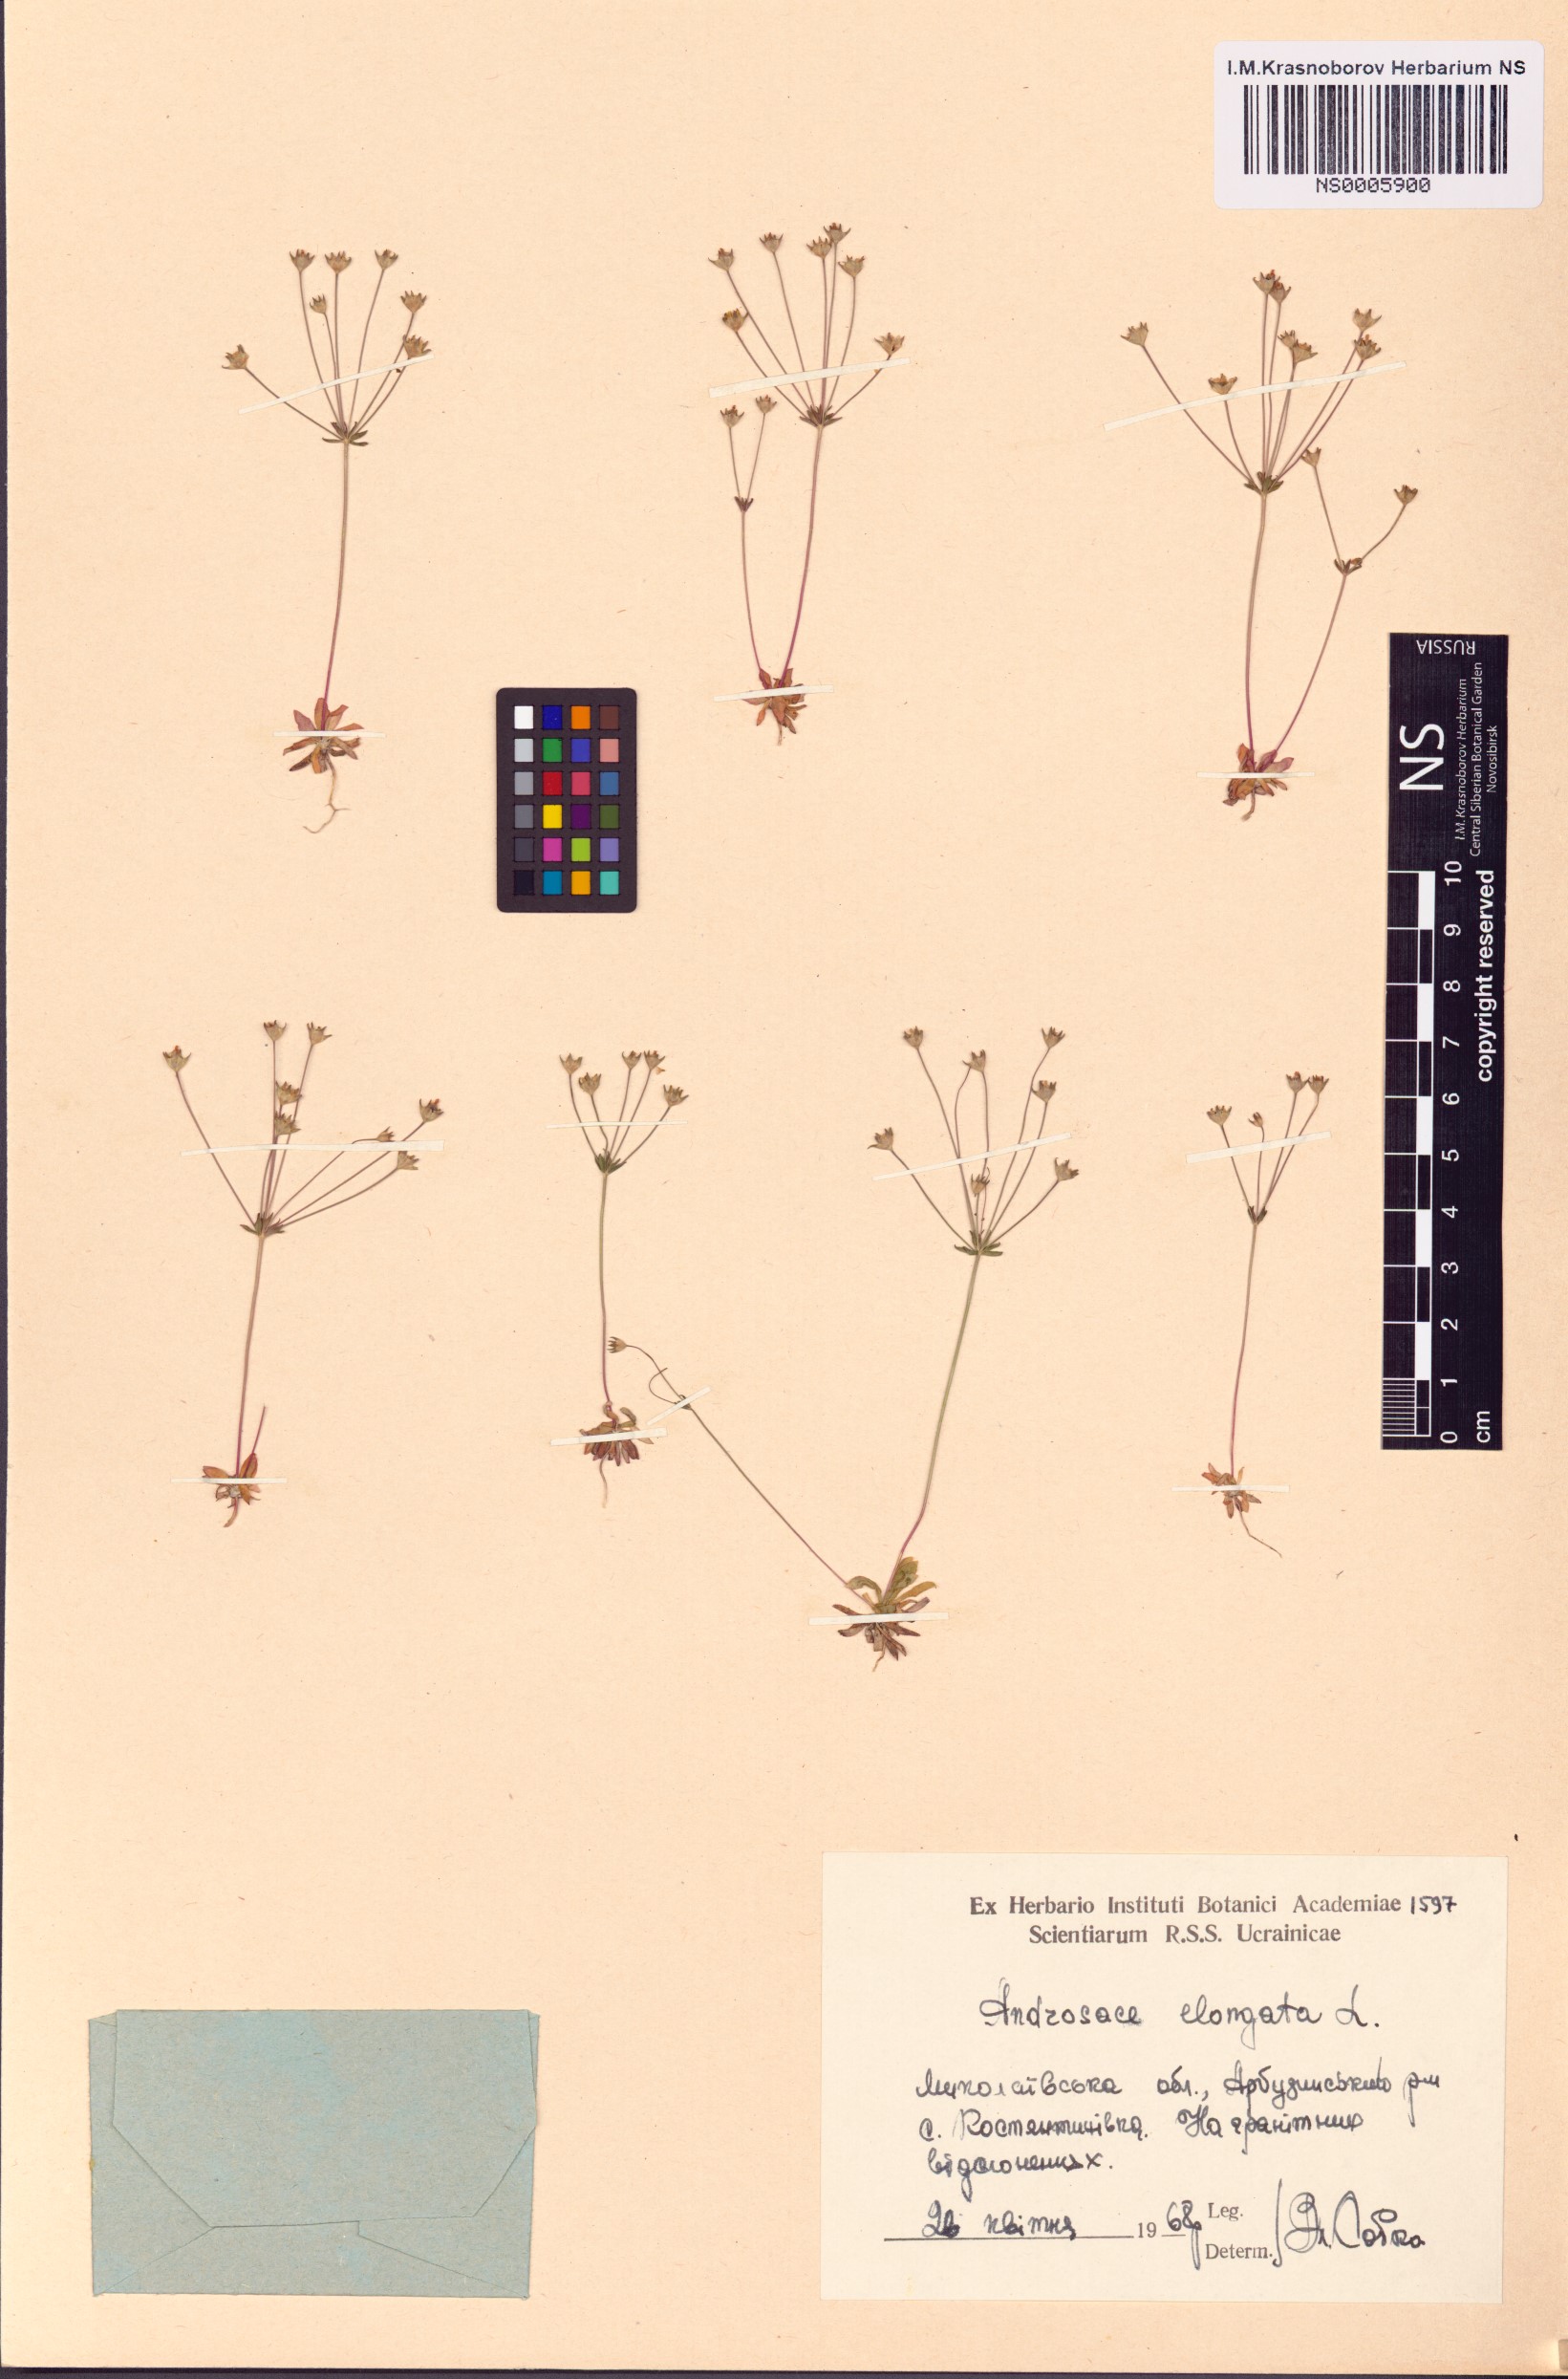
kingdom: Plantae
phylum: Tracheophyta
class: Magnoliopsida
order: Ericales
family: Primulaceae
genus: Androsace
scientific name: Androsace elongata
